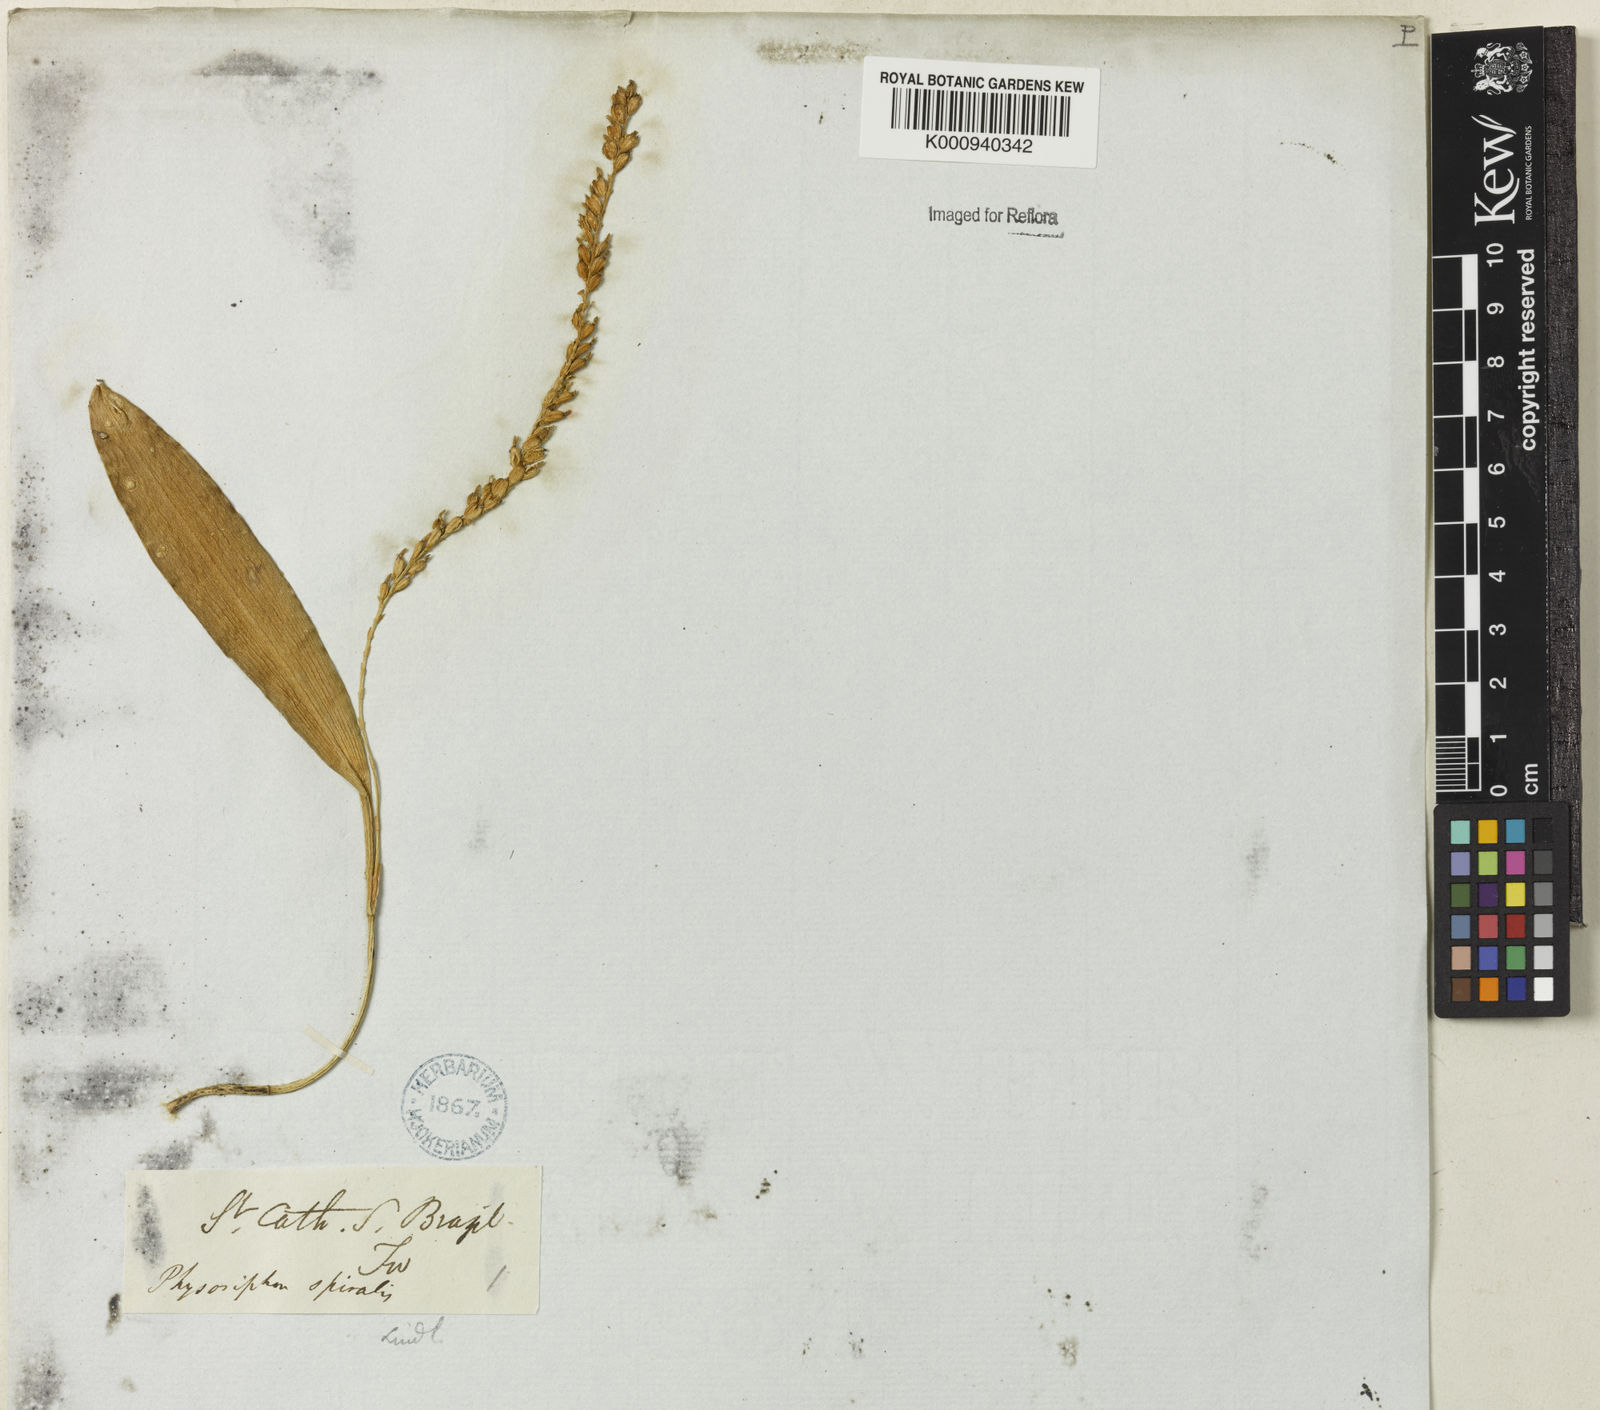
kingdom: Plantae
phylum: Tracheophyta
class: Liliopsida
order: Asparagales
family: Orchidaceae
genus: Stelis
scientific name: Stelis
